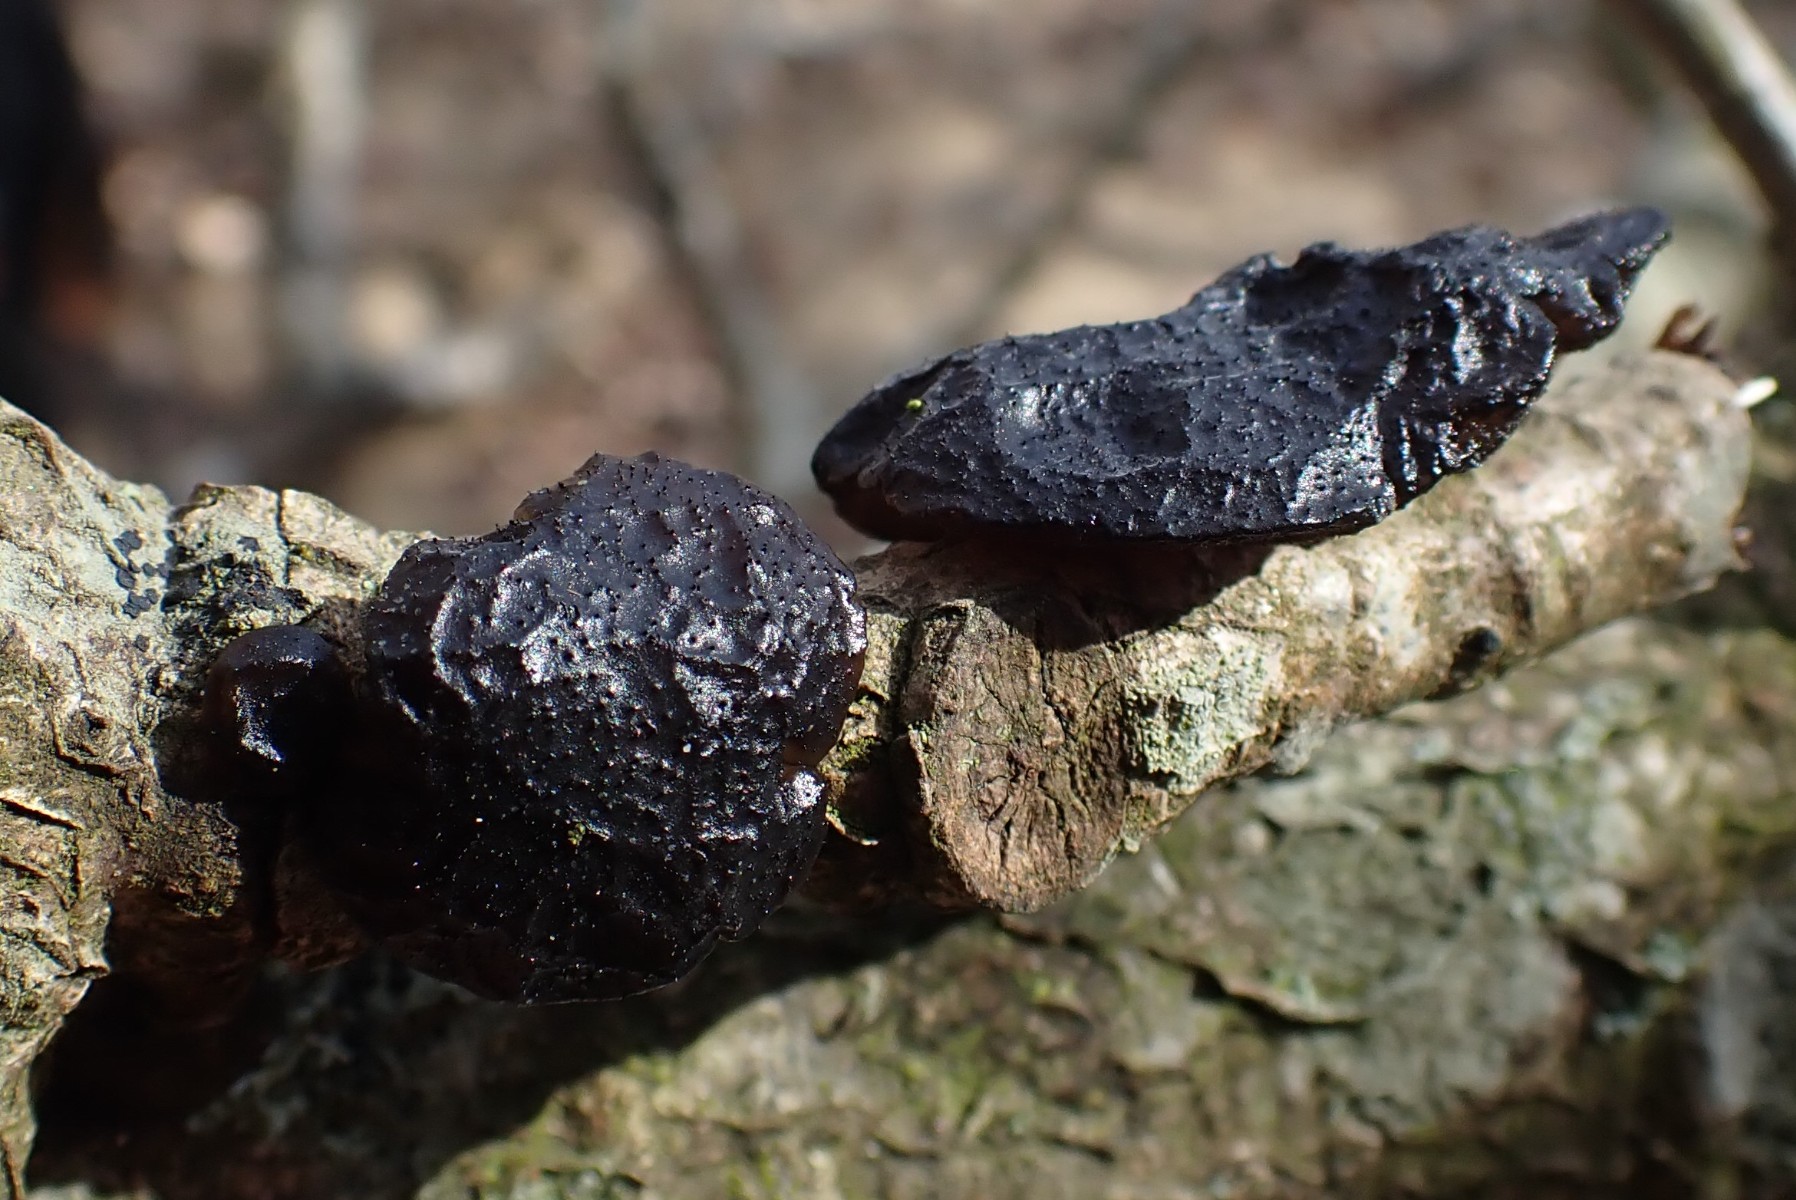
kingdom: Fungi
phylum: Basidiomycota
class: Agaricomycetes
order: Auriculariales
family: Auriculariaceae
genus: Exidia
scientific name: Exidia glandulosa
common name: ege-bævretop
